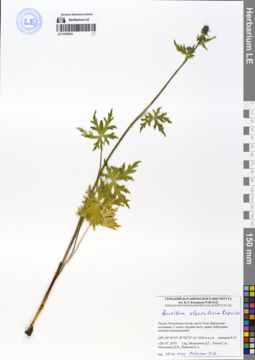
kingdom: Plantae
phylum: Tracheophyta
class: Magnoliopsida
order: Ranunculales
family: Ranunculaceae
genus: Aconitum
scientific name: Aconitum glandulosum
